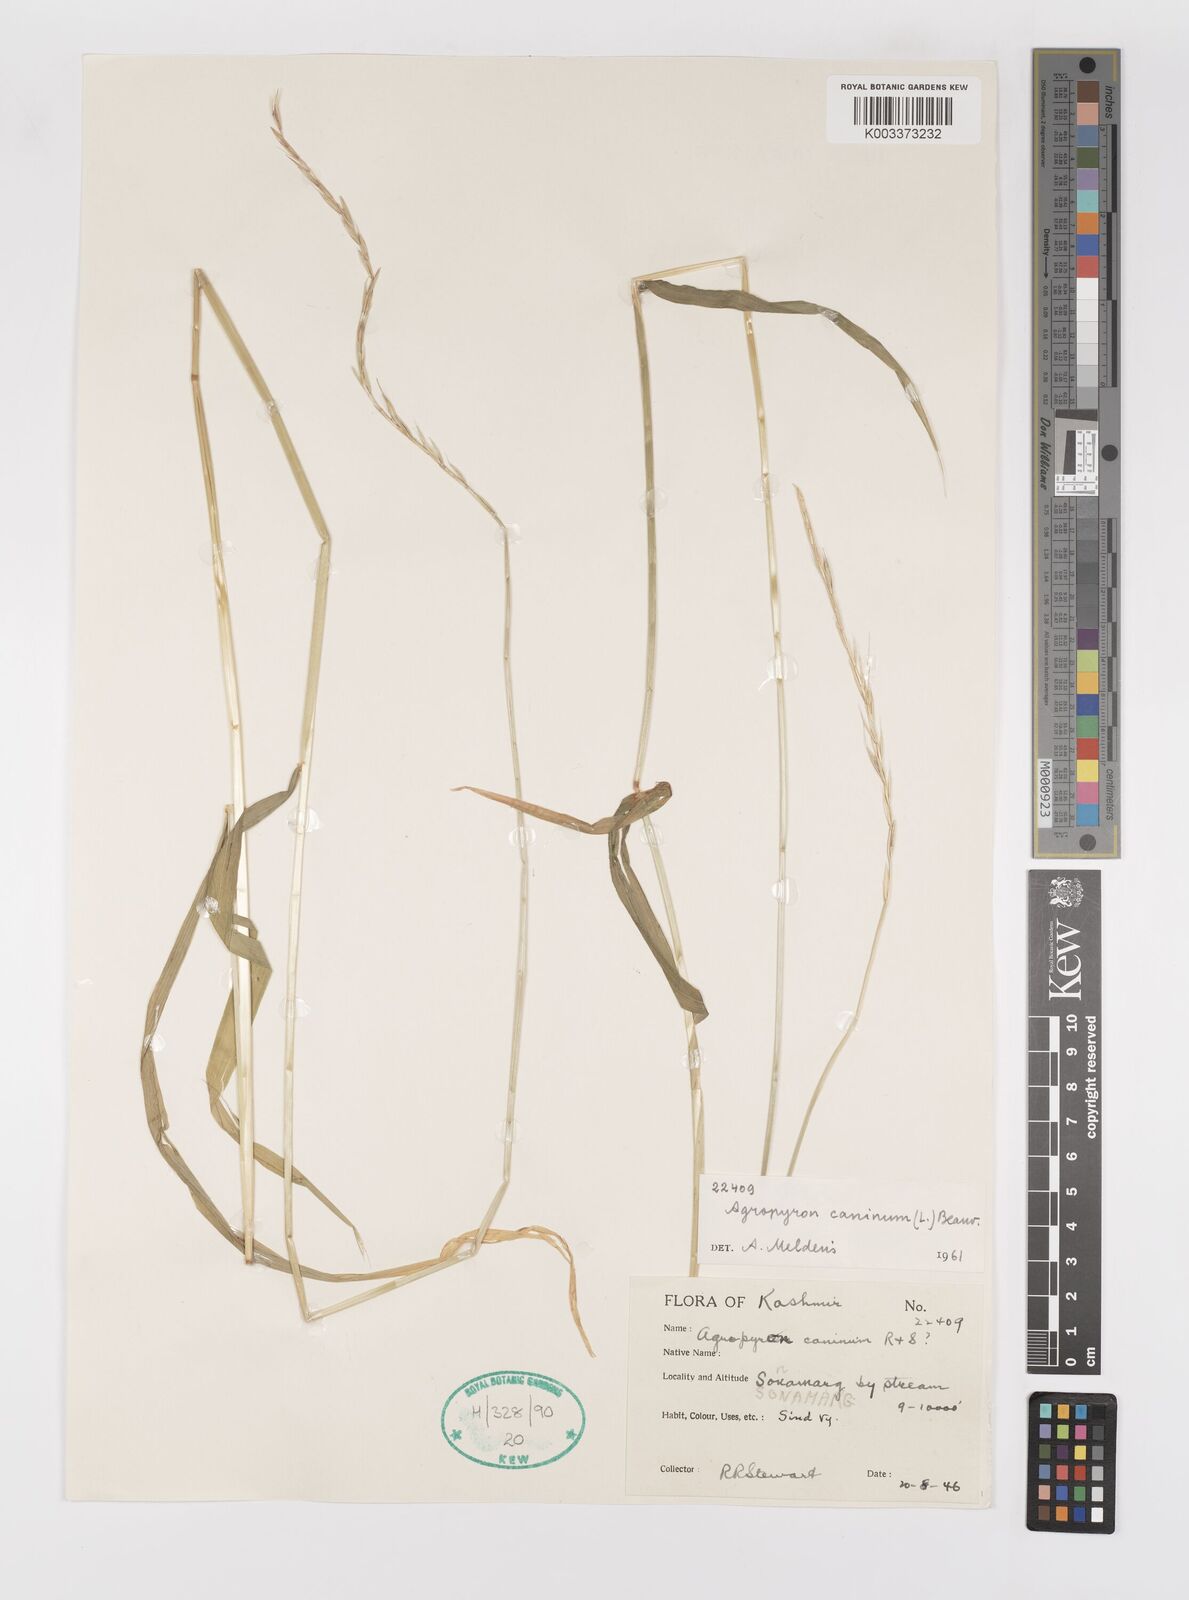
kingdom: Plantae
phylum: Tracheophyta
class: Liliopsida
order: Poales
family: Poaceae
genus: Elymus
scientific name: Elymus caninus
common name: Bearded couch
